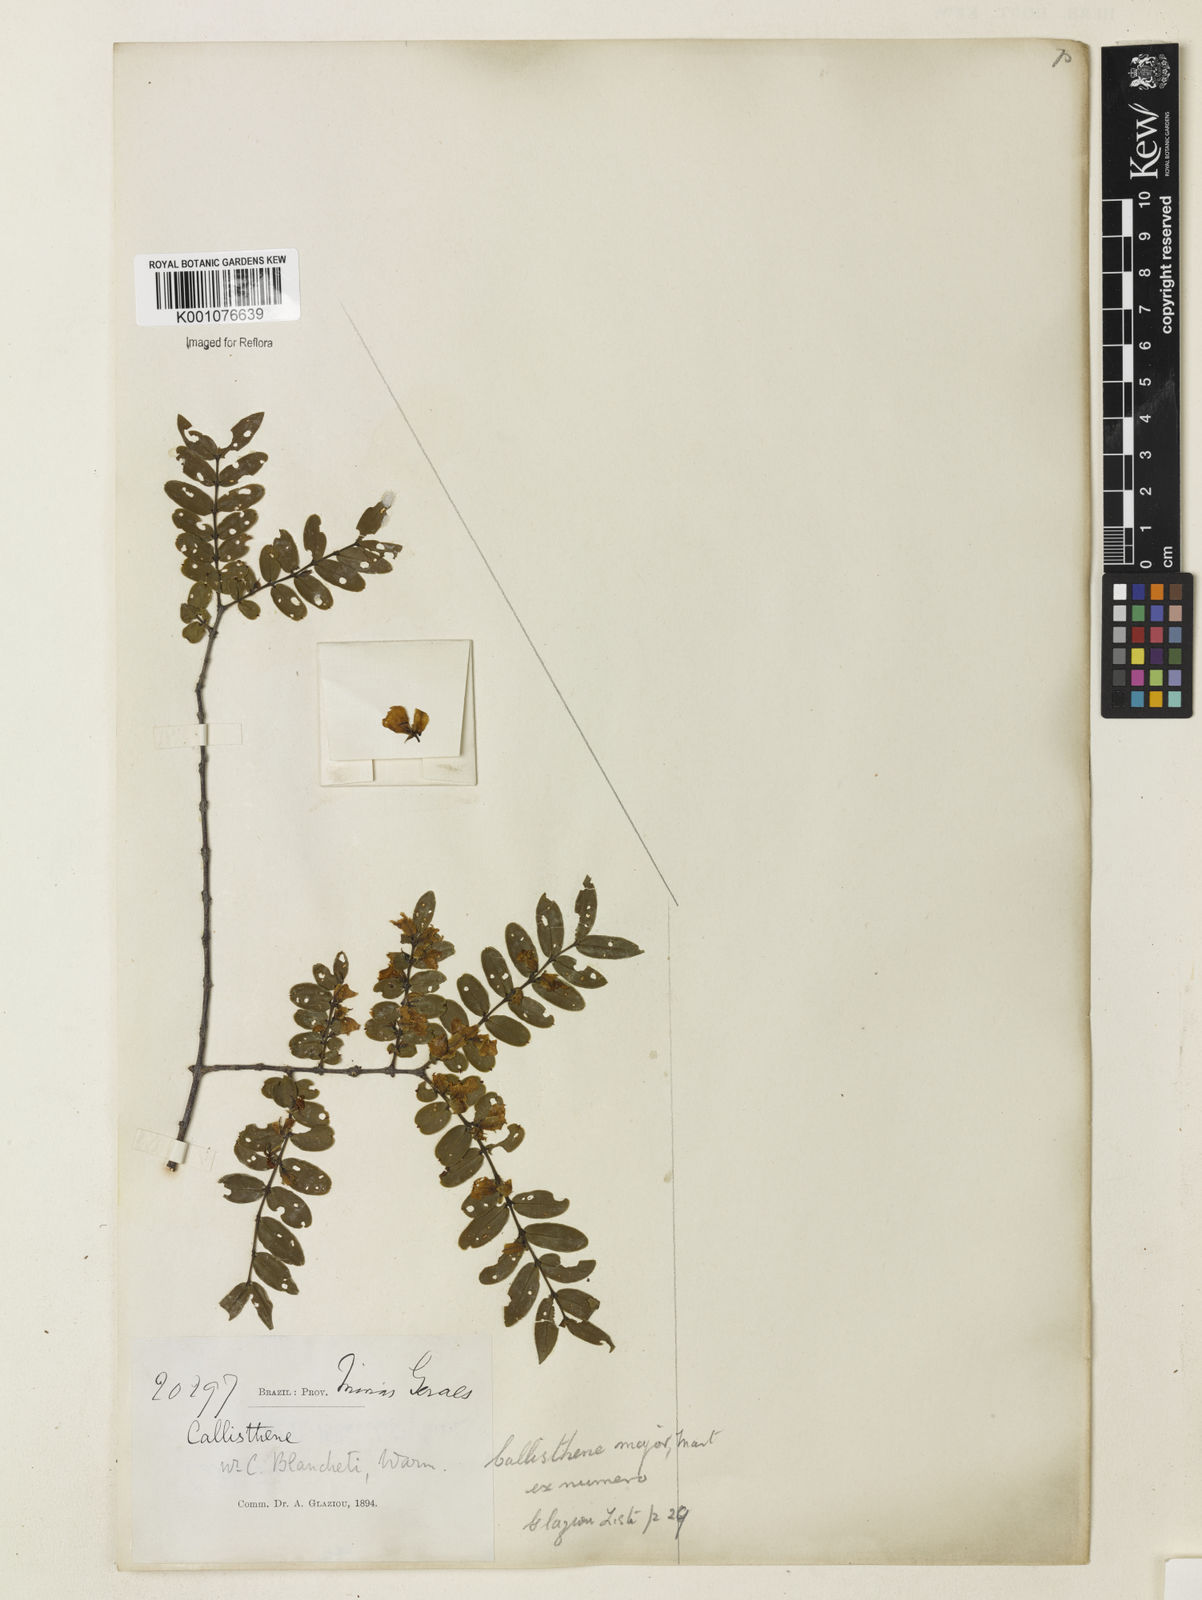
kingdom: Plantae
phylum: Tracheophyta
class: Magnoliopsida
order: Myrtales
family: Vochysiaceae
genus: Callisthene
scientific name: Callisthene major
